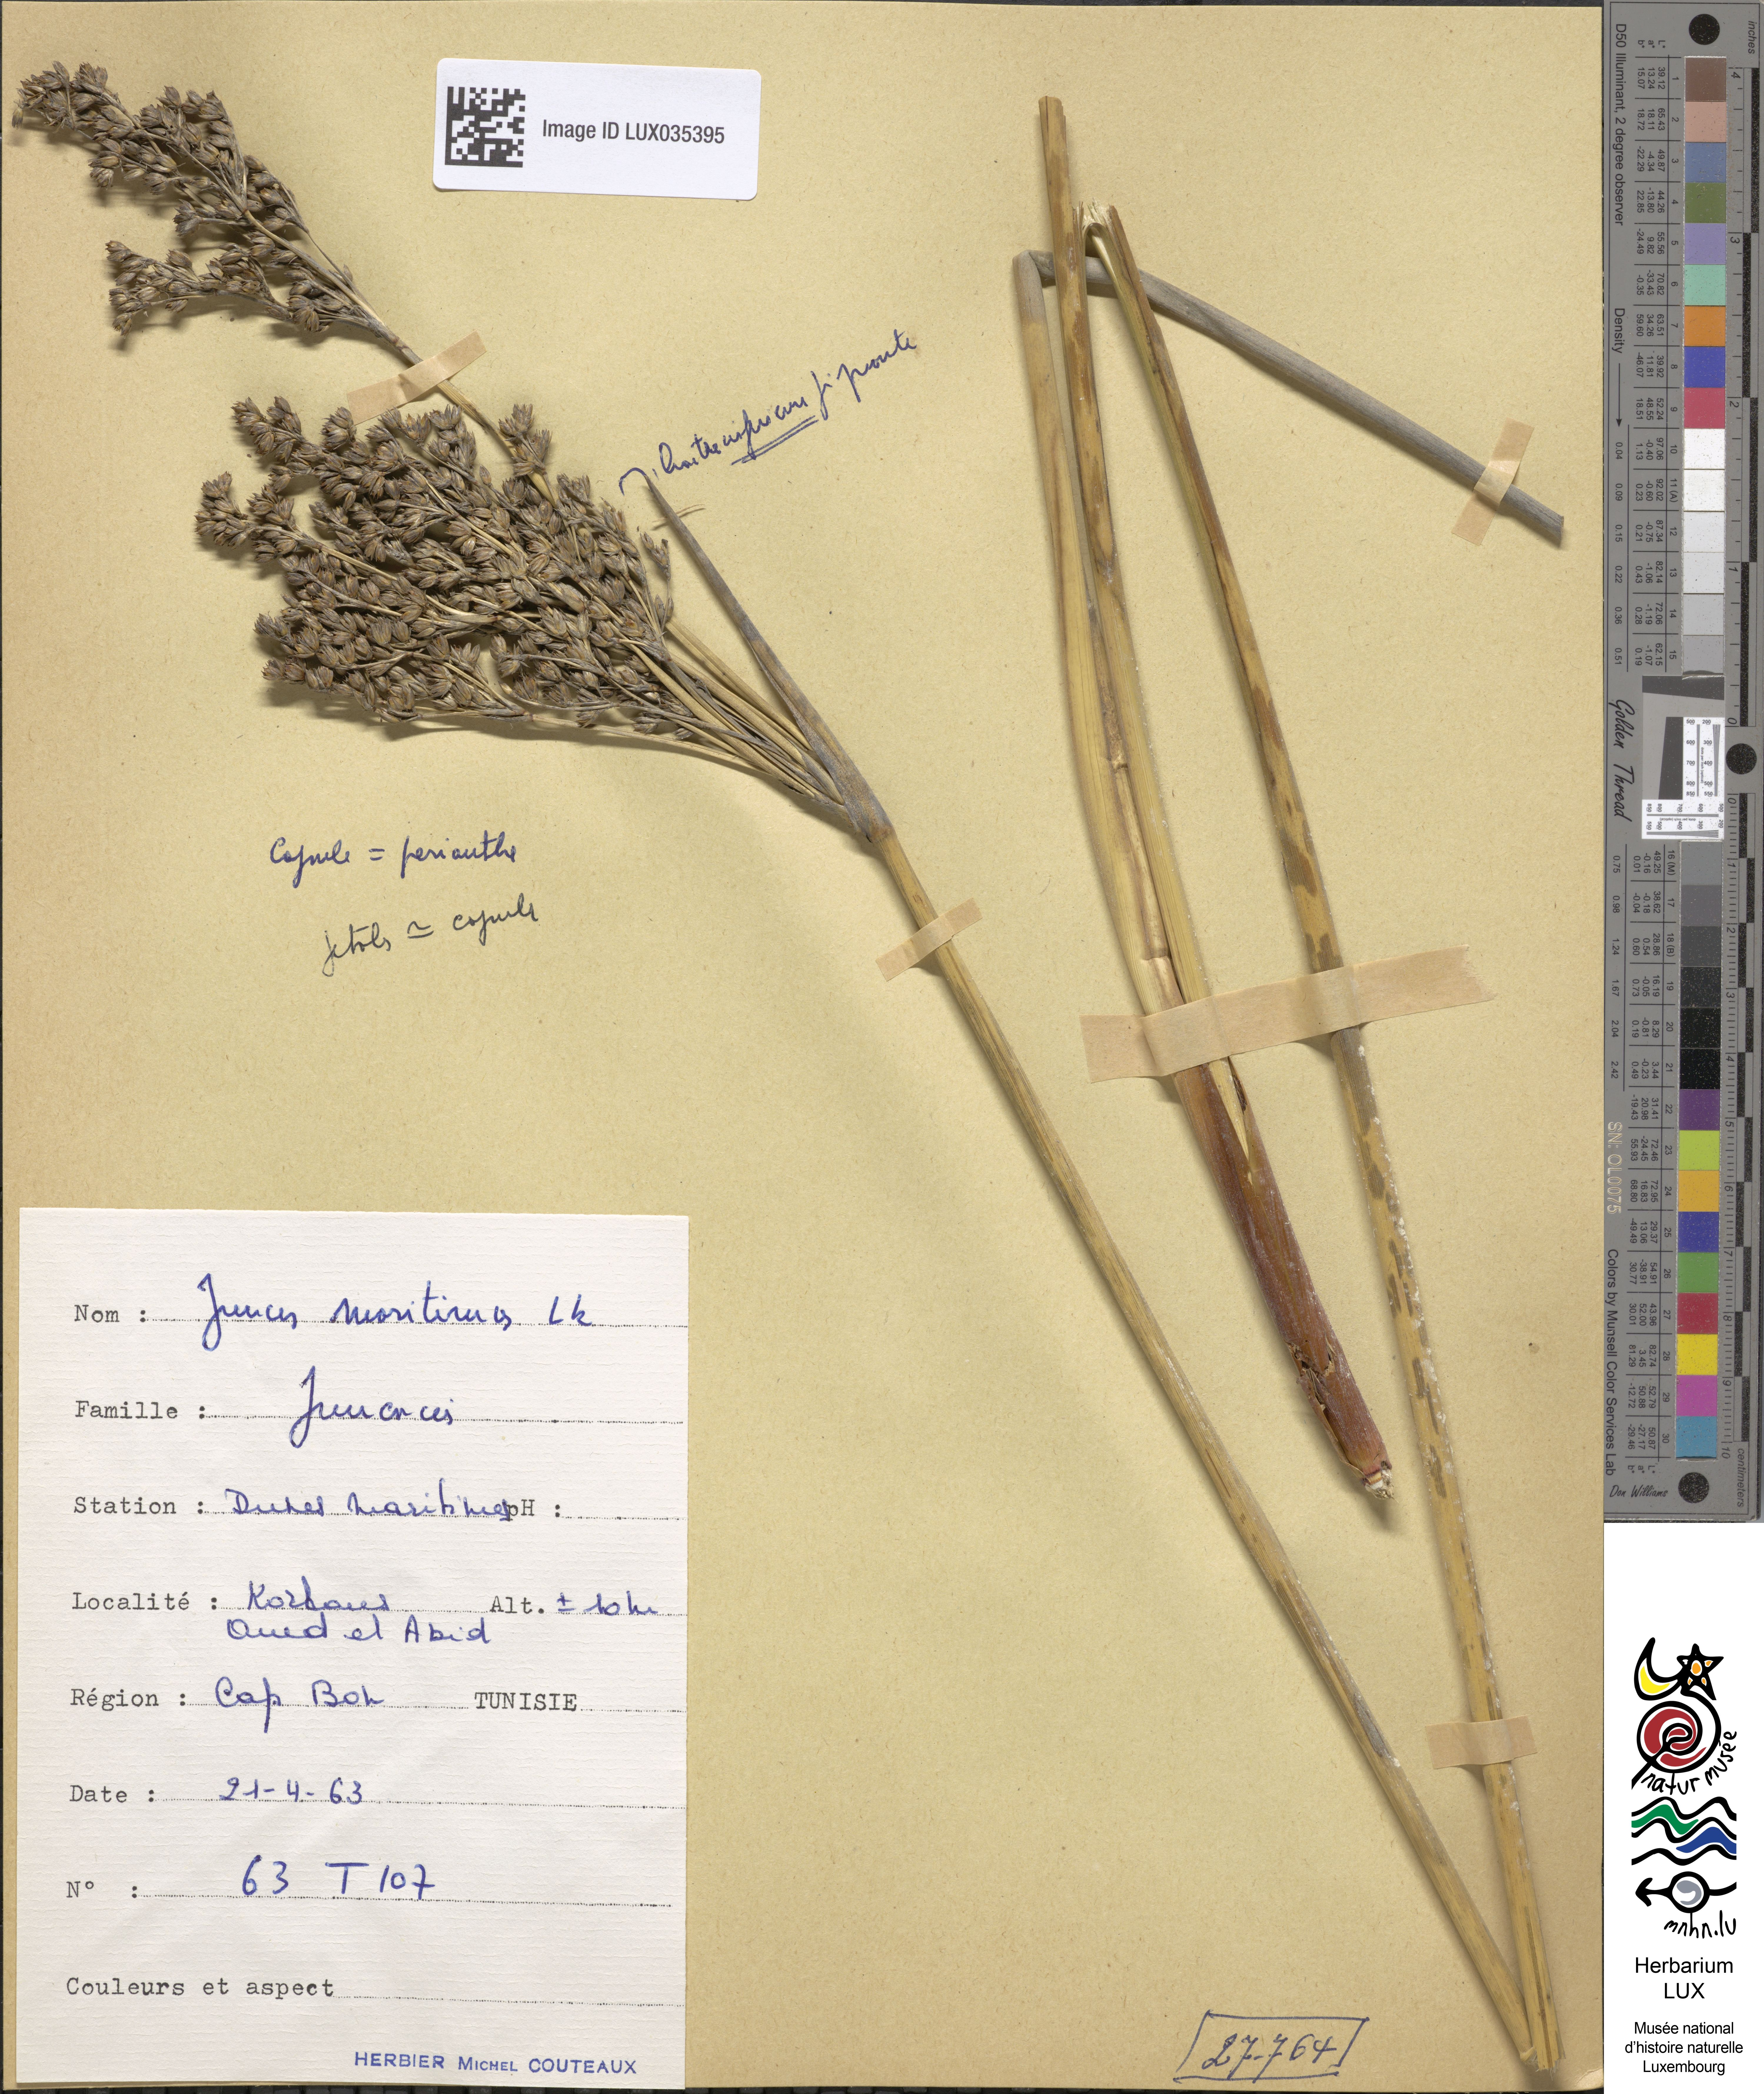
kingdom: Plantae
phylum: Tracheophyta
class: Liliopsida
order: Poales
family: Juncaceae
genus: Juncus
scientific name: Juncus maritimus
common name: Sea rush
